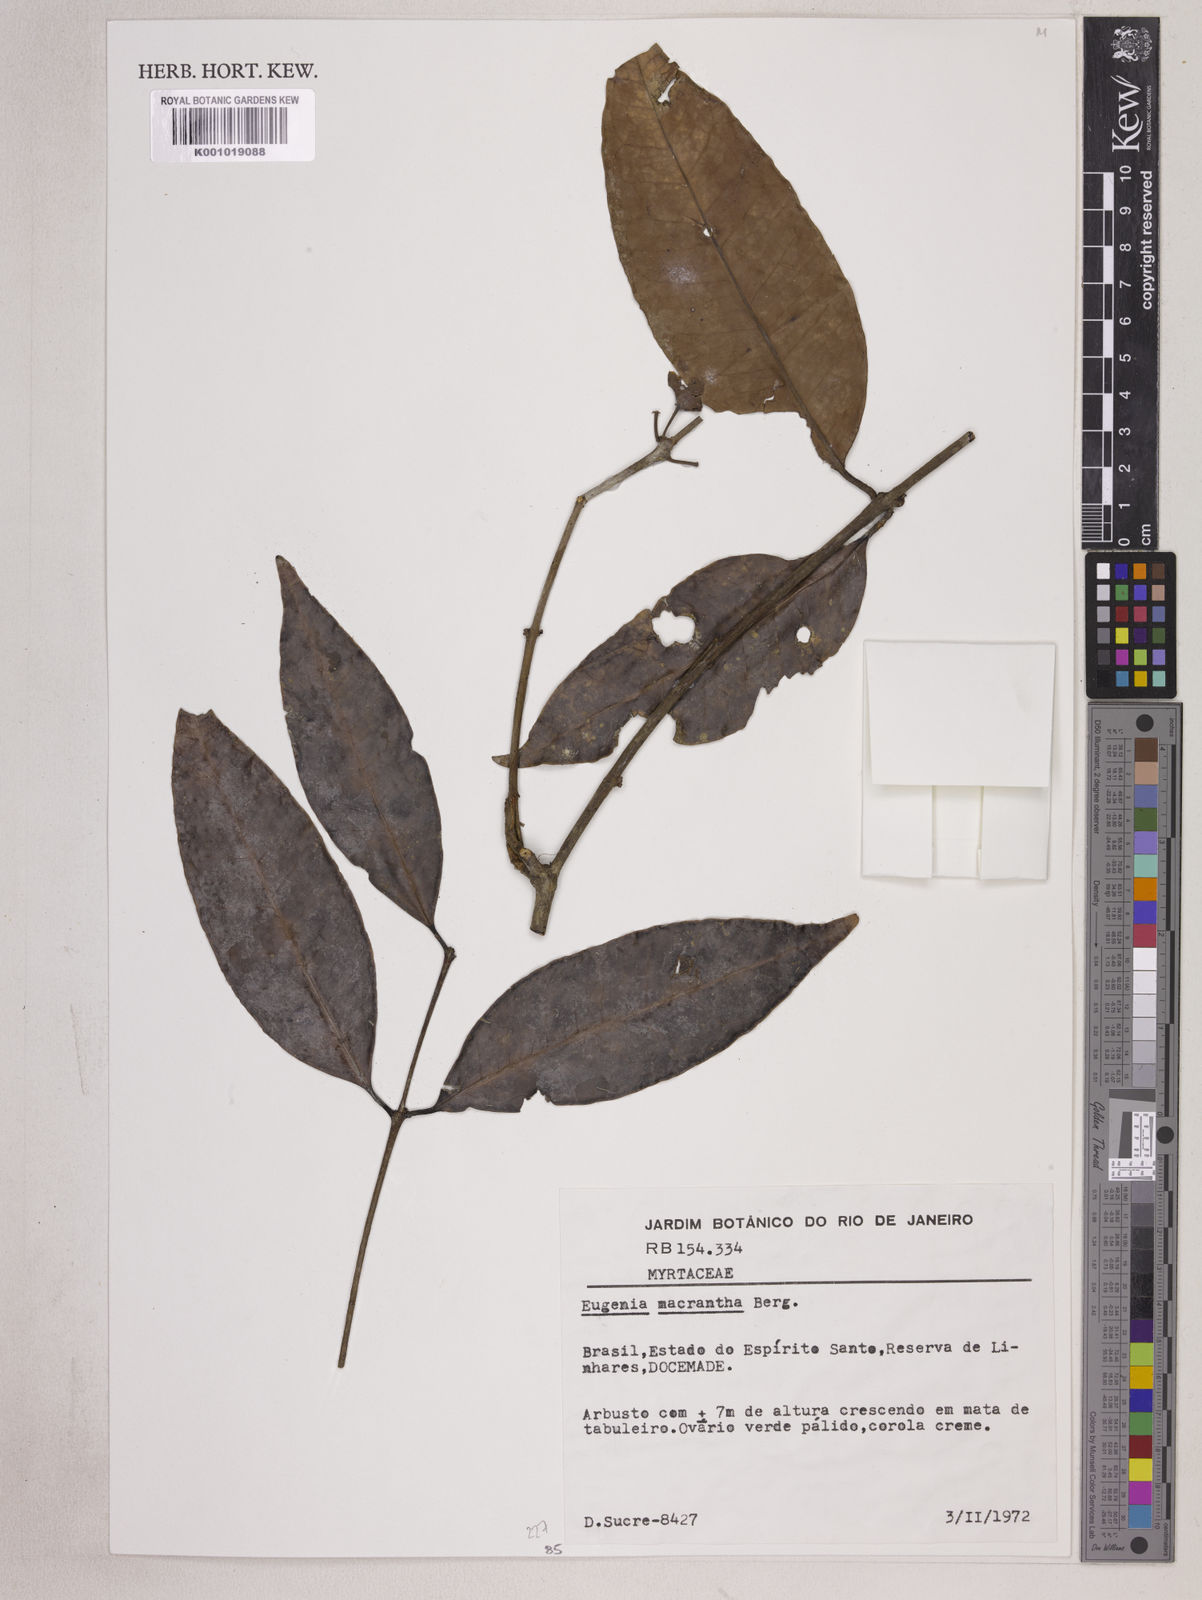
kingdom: Plantae
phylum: Tracheophyta
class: Magnoliopsida
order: Myrtales
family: Myrtaceae
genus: Eugenia
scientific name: Eugenia macrantha
